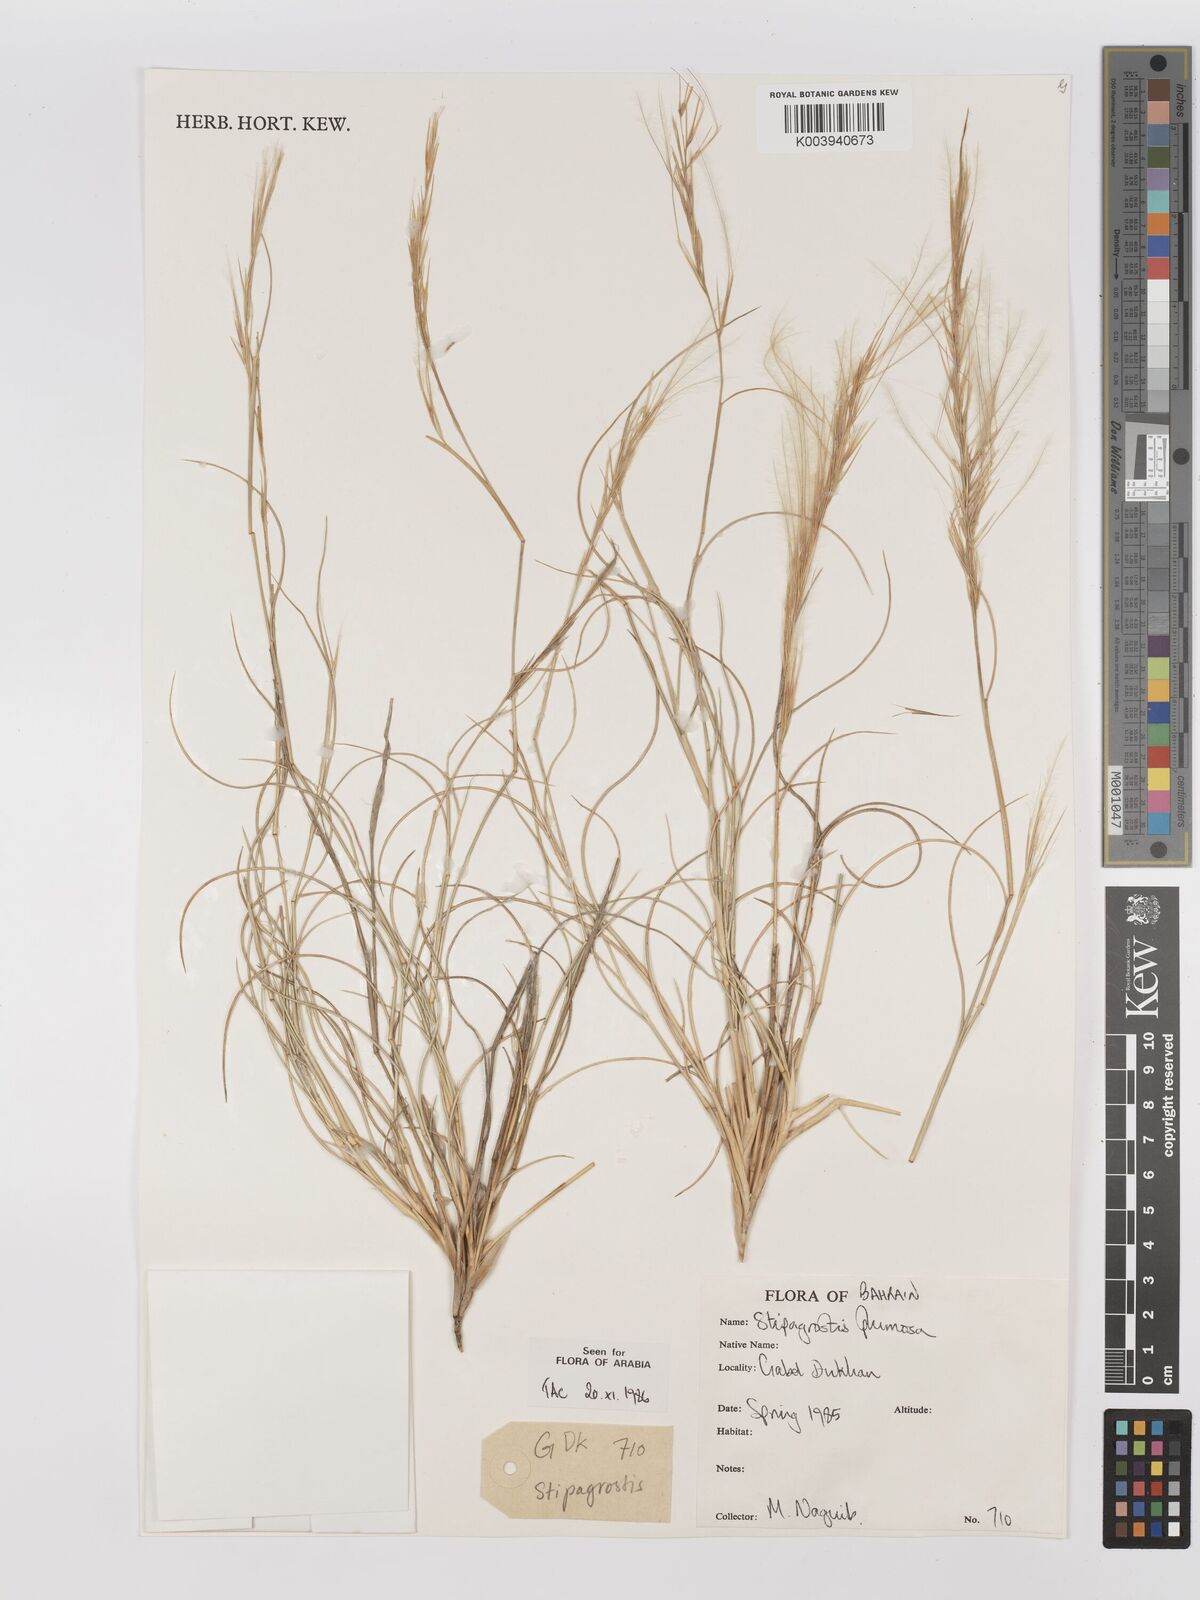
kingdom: Plantae
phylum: Tracheophyta
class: Liliopsida
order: Poales
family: Poaceae
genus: Stipagrostis
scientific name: Stipagrostis plumosa
